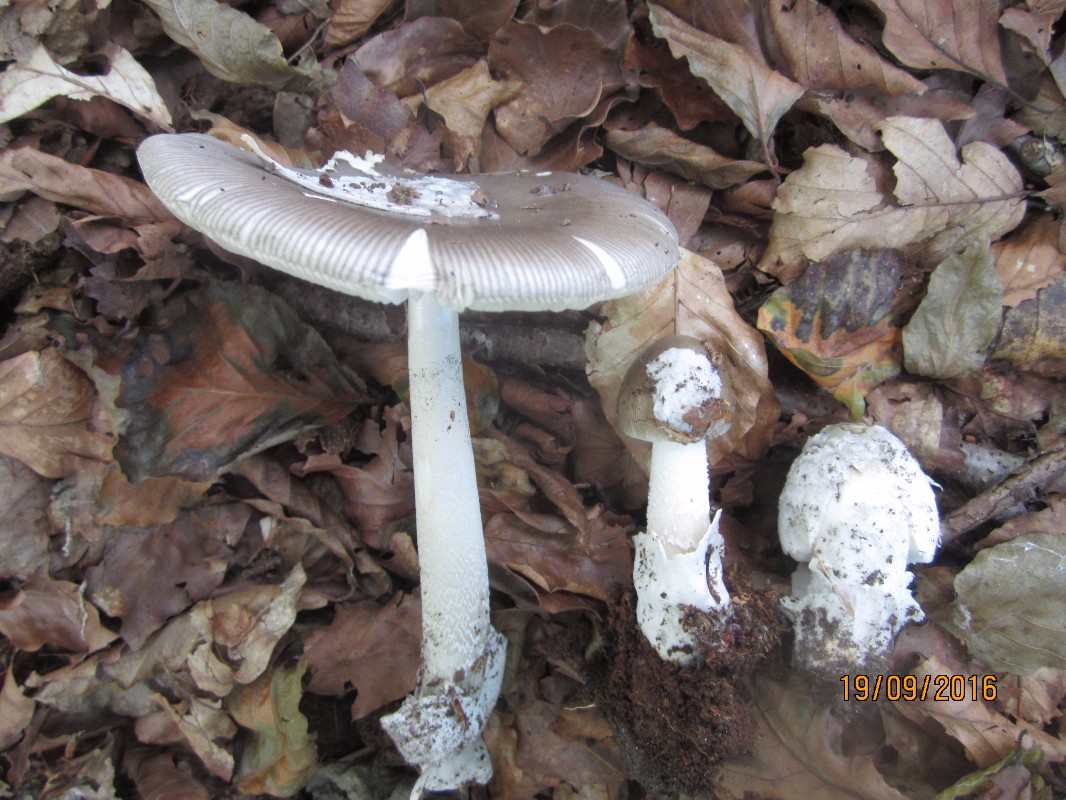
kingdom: Fungi
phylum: Basidiomycota
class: Agaricomycetes
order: Agaricales
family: Amanitaceae
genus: Amanita
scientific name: Amanita submembranacea
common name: gråspættet kam-fluesvamp
